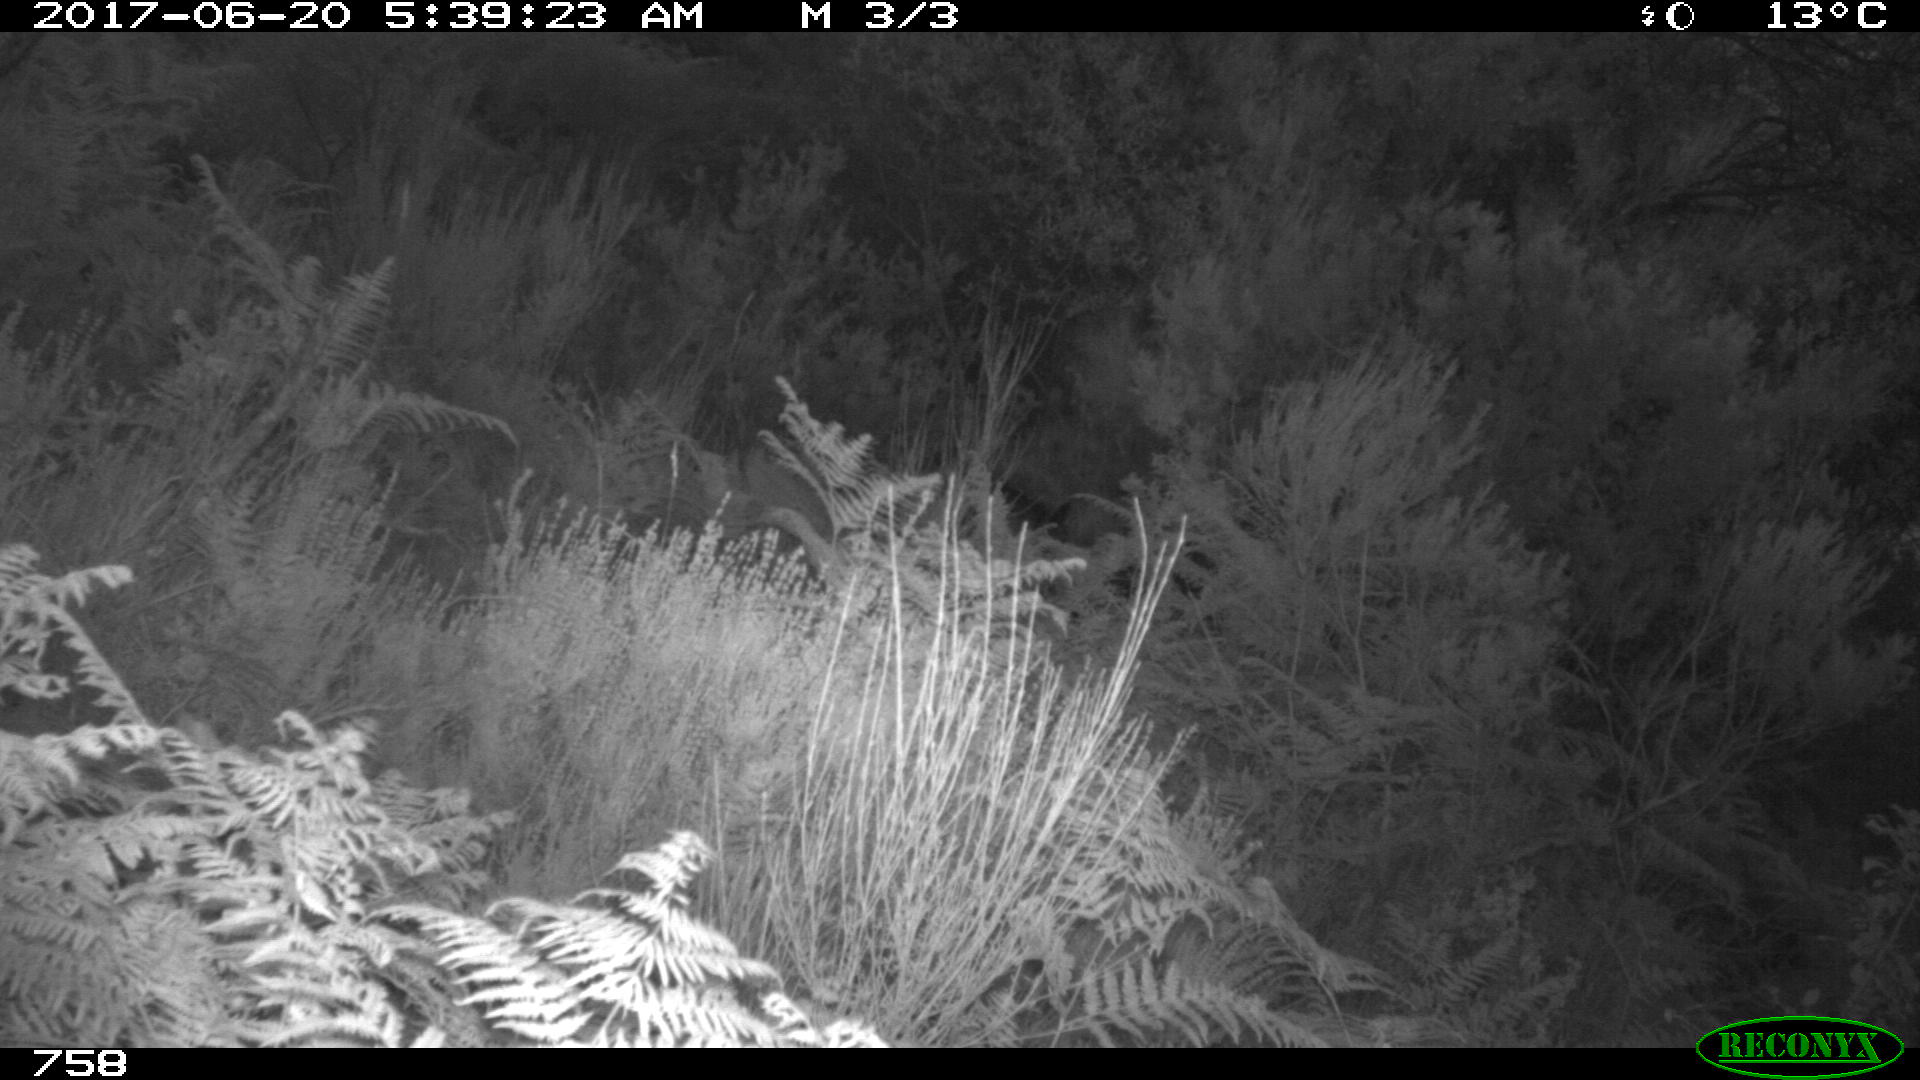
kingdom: Animalia
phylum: Chordata
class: Mammalia
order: Perissodactyla
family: Equidae
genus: Equus
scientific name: Equus caballus
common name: Horse
